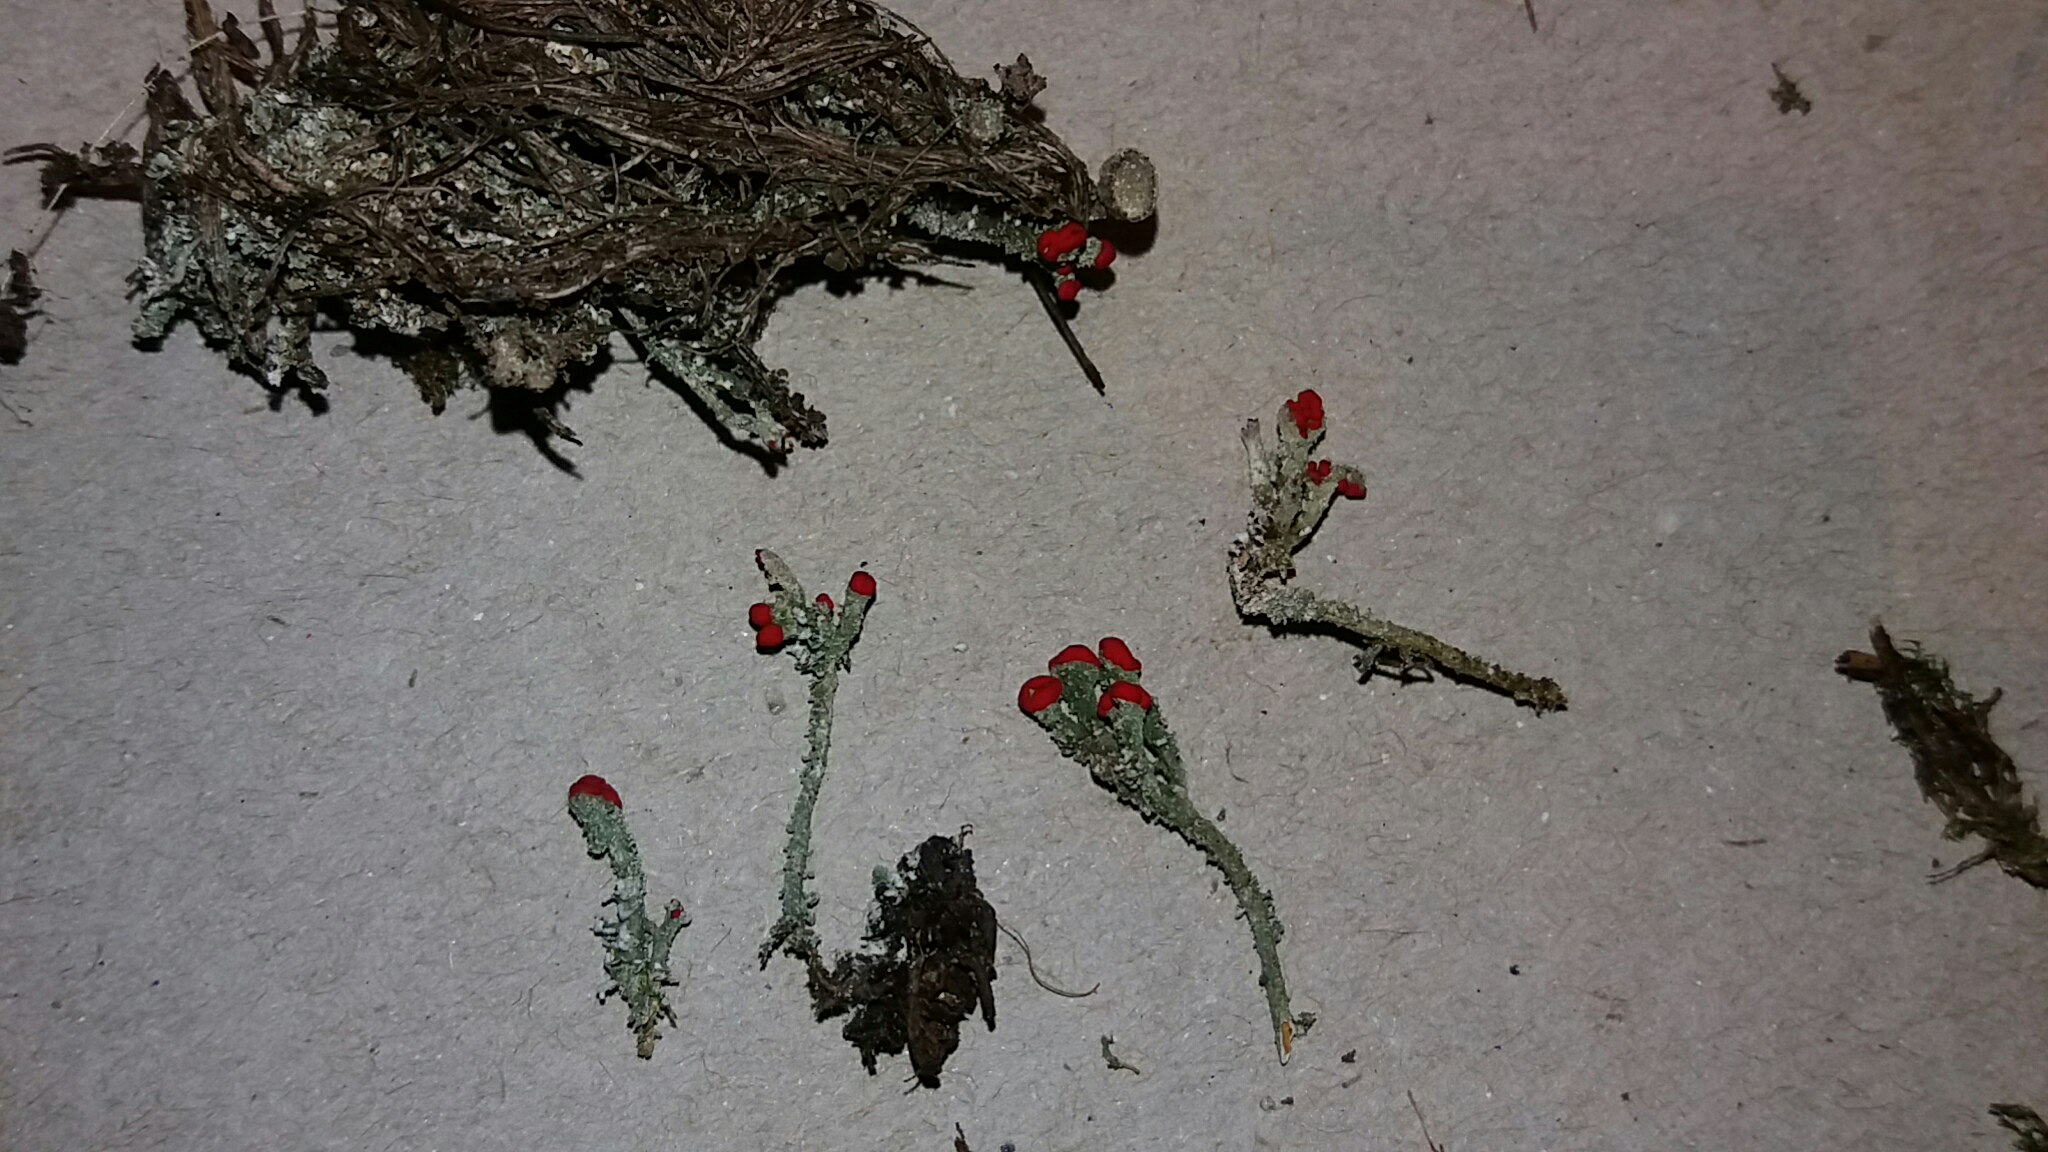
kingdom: Fungi
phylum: Ascomycota
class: Lecanoromycetes
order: Lecanorales
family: Cladoniaceae
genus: Cladonia
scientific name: Cladonia floerkeana
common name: lakrød bægerlav
